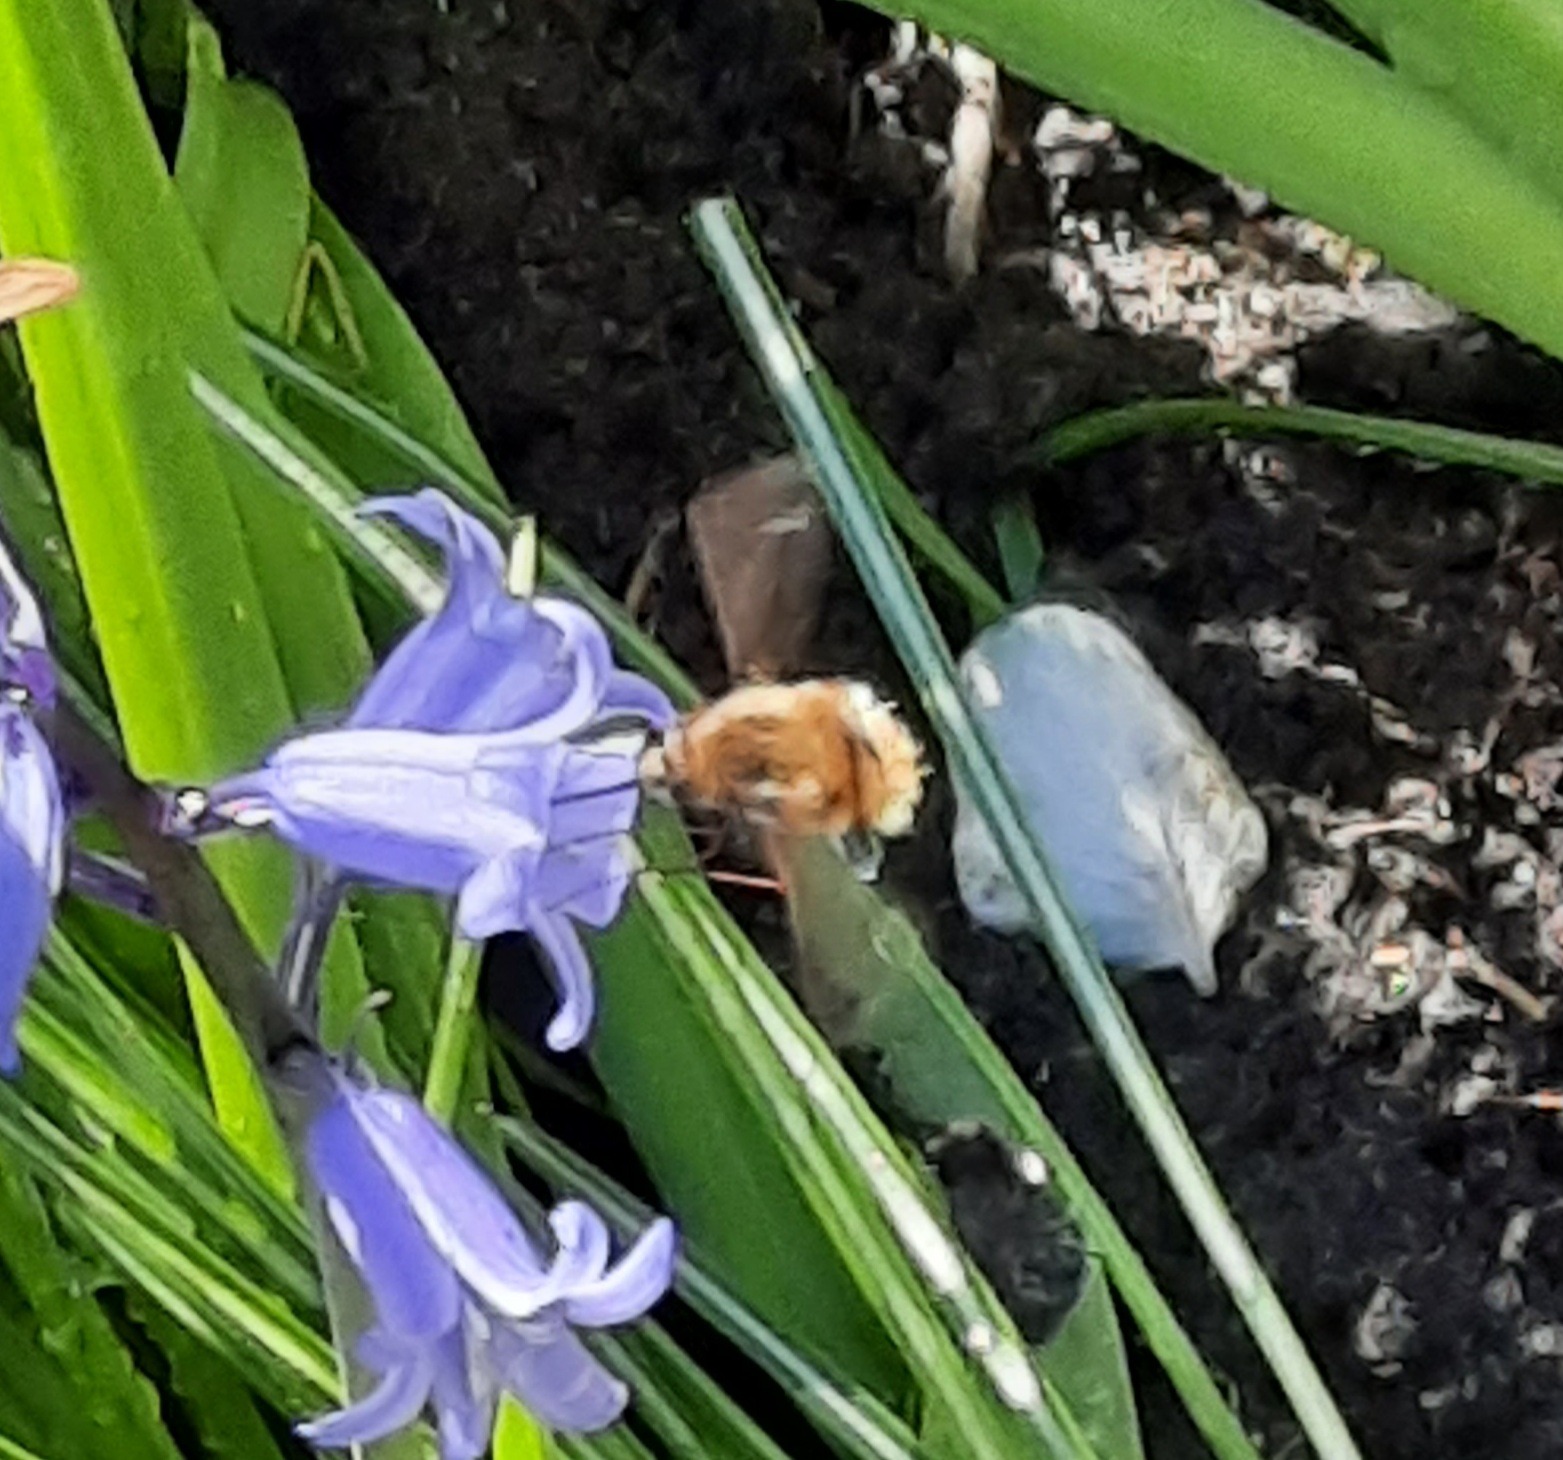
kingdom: Animalia
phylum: Arthropoda
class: Insecta
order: Diptera
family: Bombyliidae
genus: Bombylius
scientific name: Bombylius major
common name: Stor humleflue
